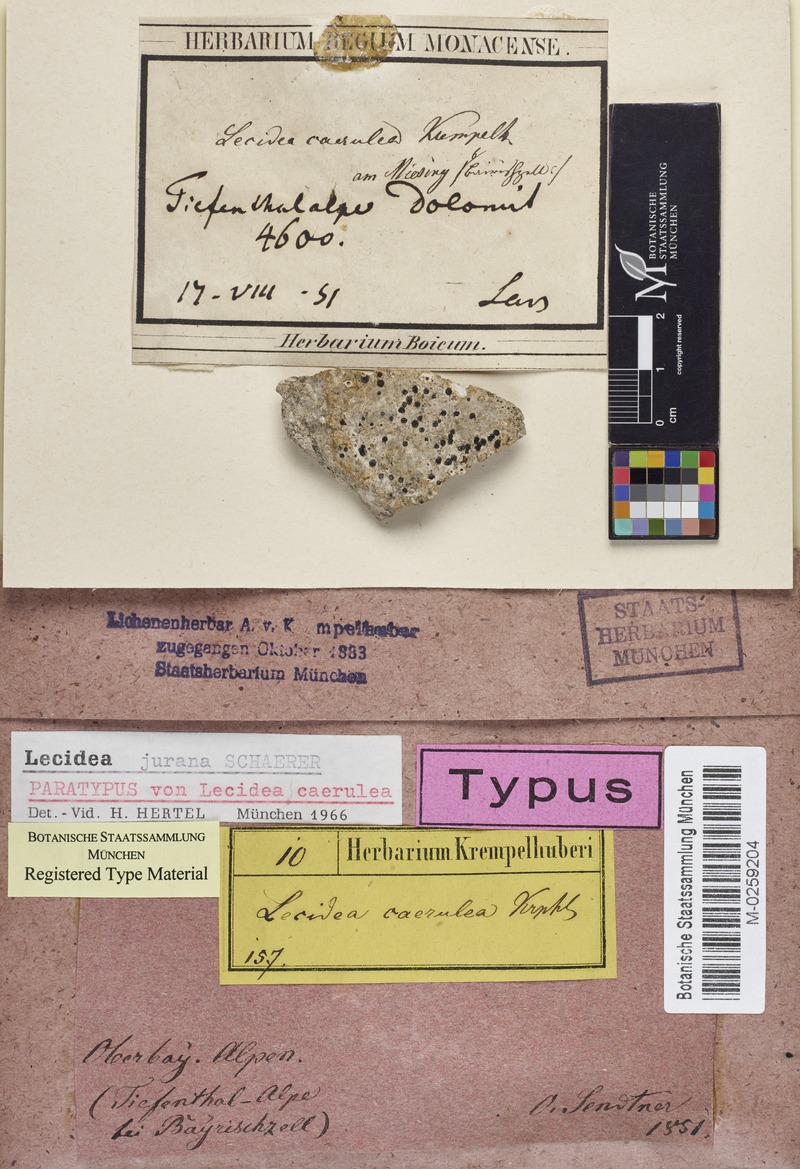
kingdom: Fungi
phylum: Ascomycota
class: Lecanoromycetes
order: Lecideales
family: Lecideaceae
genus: Farnoldia
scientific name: Farnoldia jurana
